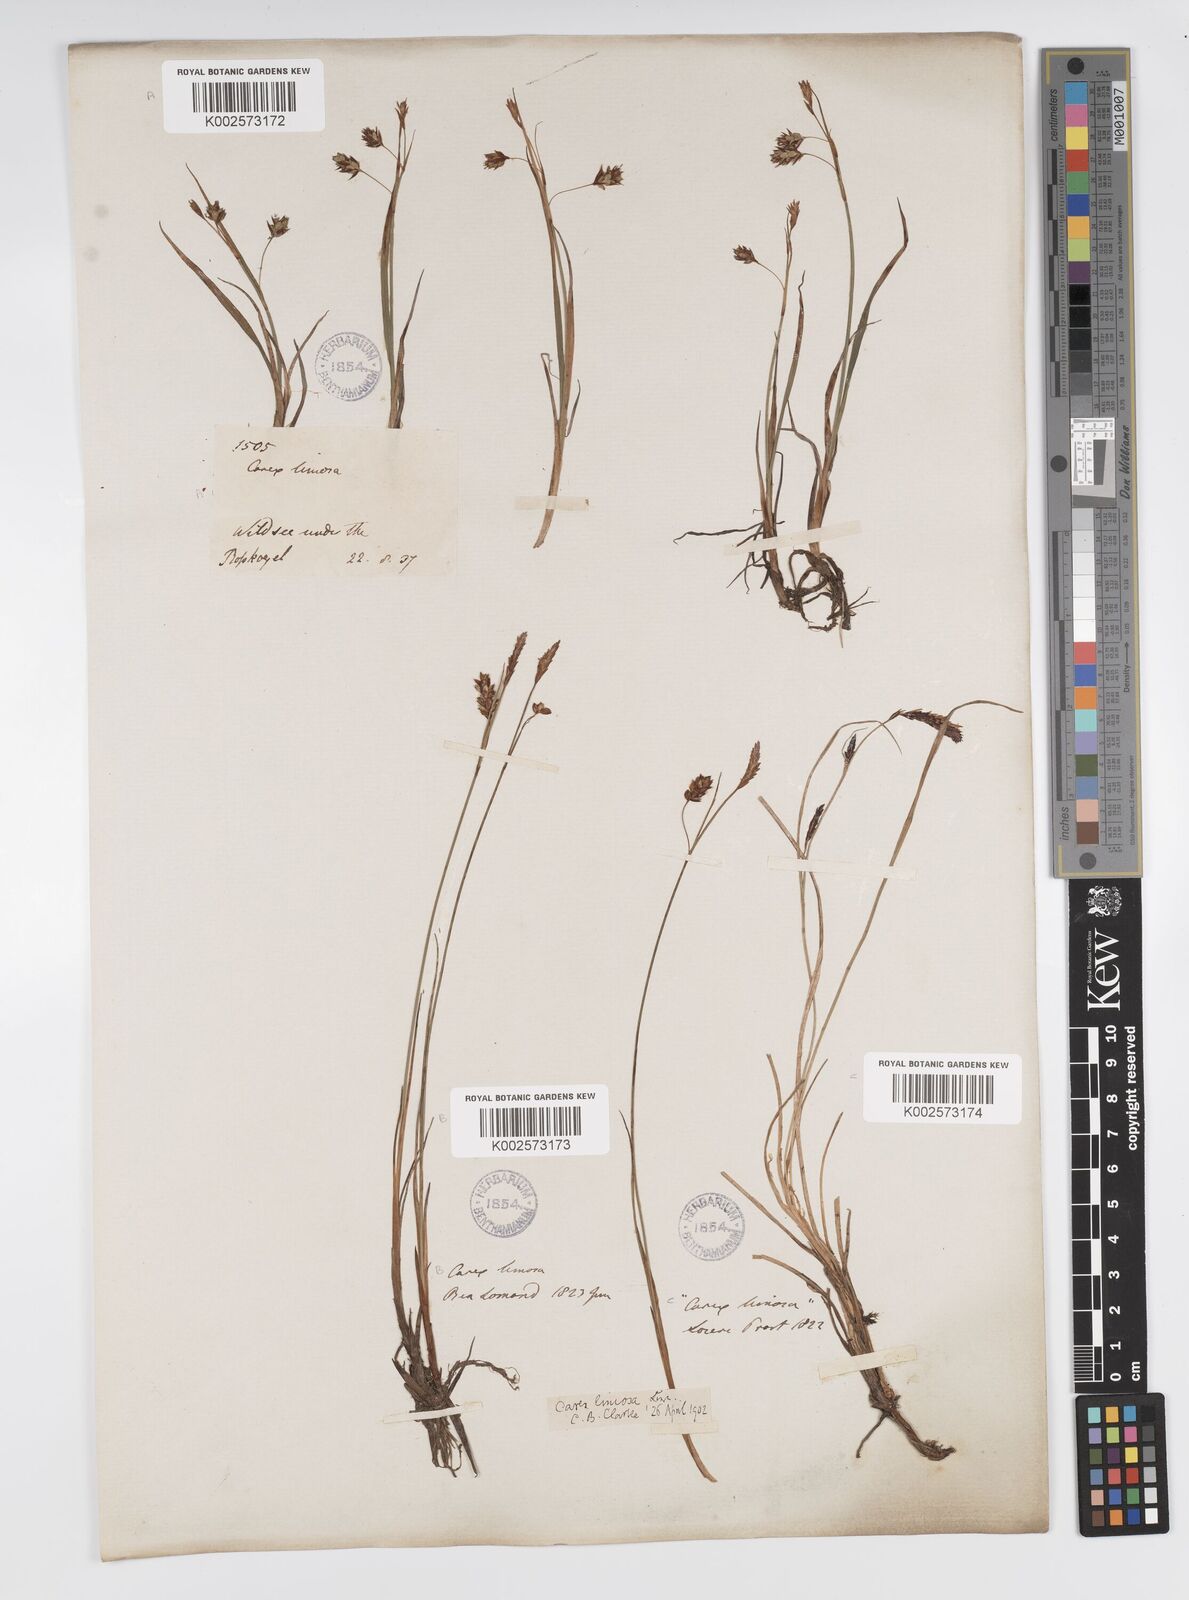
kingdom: Plantae
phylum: Tracheophyta
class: Liliopsida
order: Poales
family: Cyperaceae
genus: Carex
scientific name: Carex limosa
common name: Bog sedge
